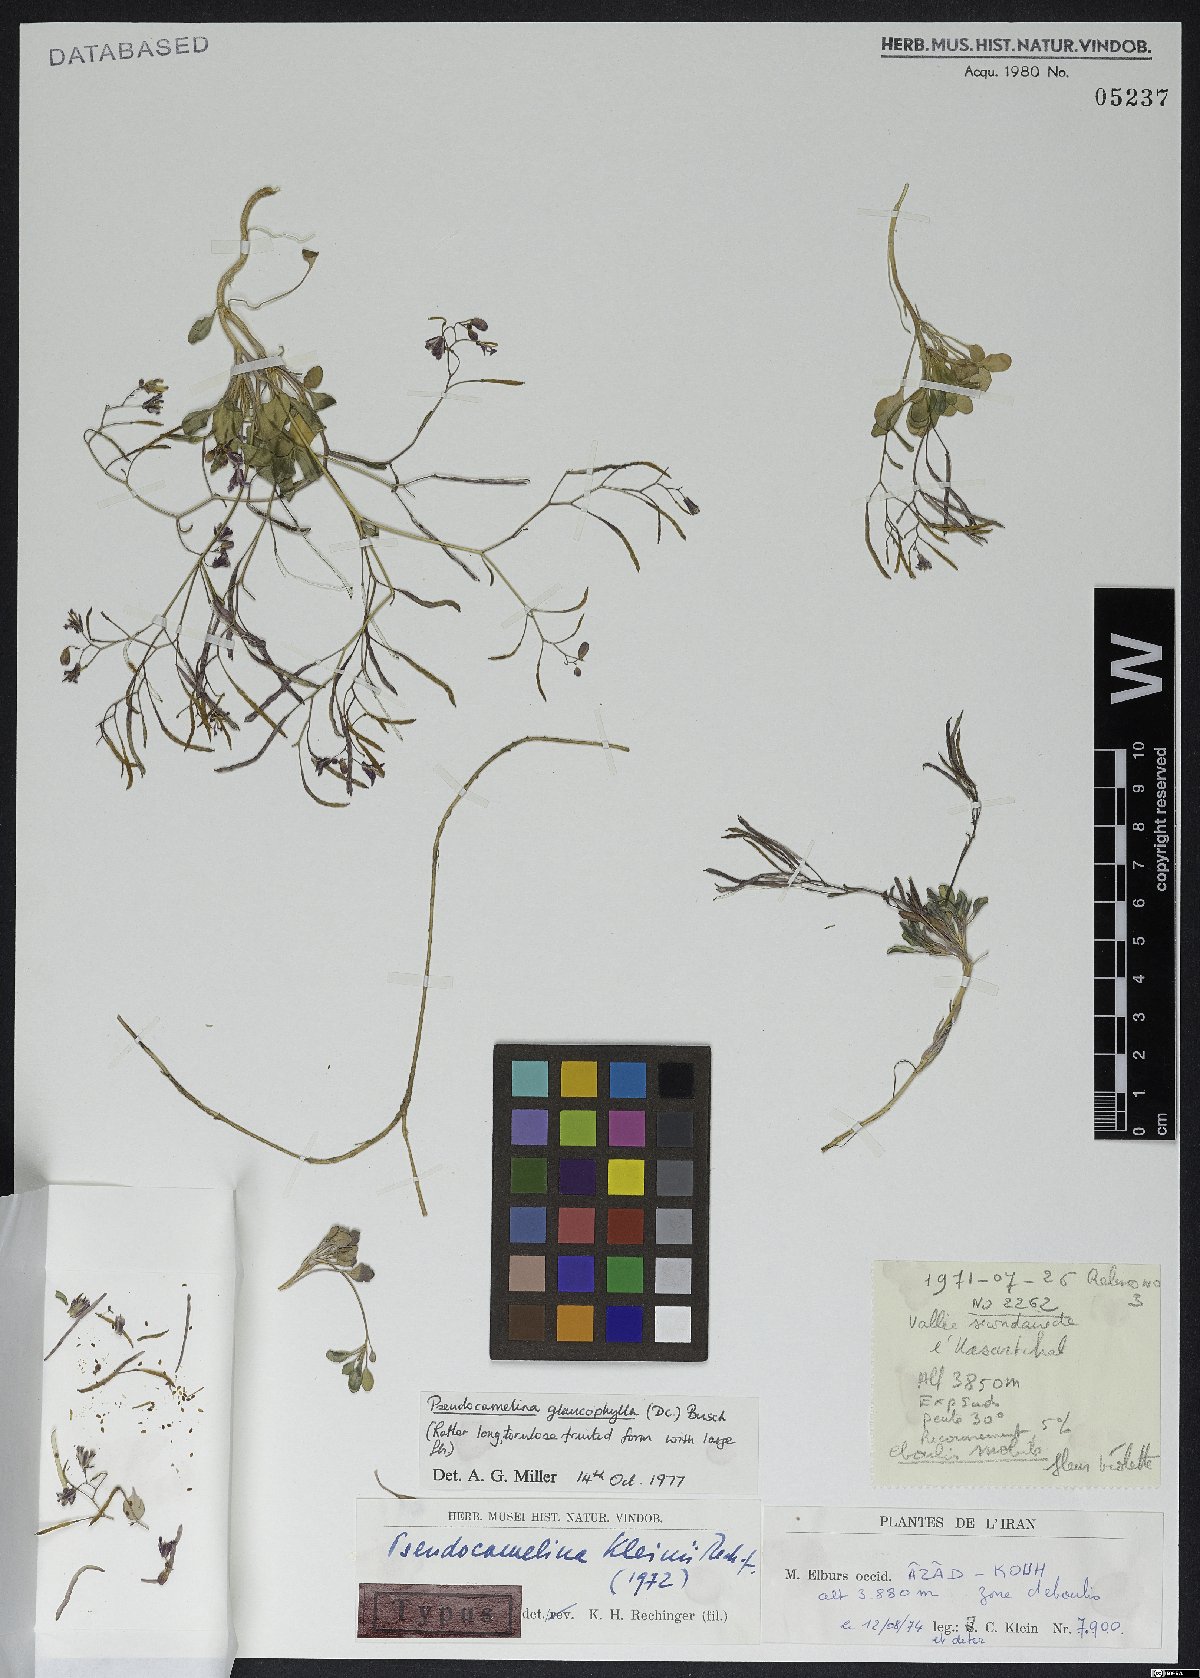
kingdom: Plantae
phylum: Tracheophyta
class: Magnoliopsida
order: Brassicales
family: Brassicaceae
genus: Pseudocamelina
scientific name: Pseudocamelina glaucophylla
